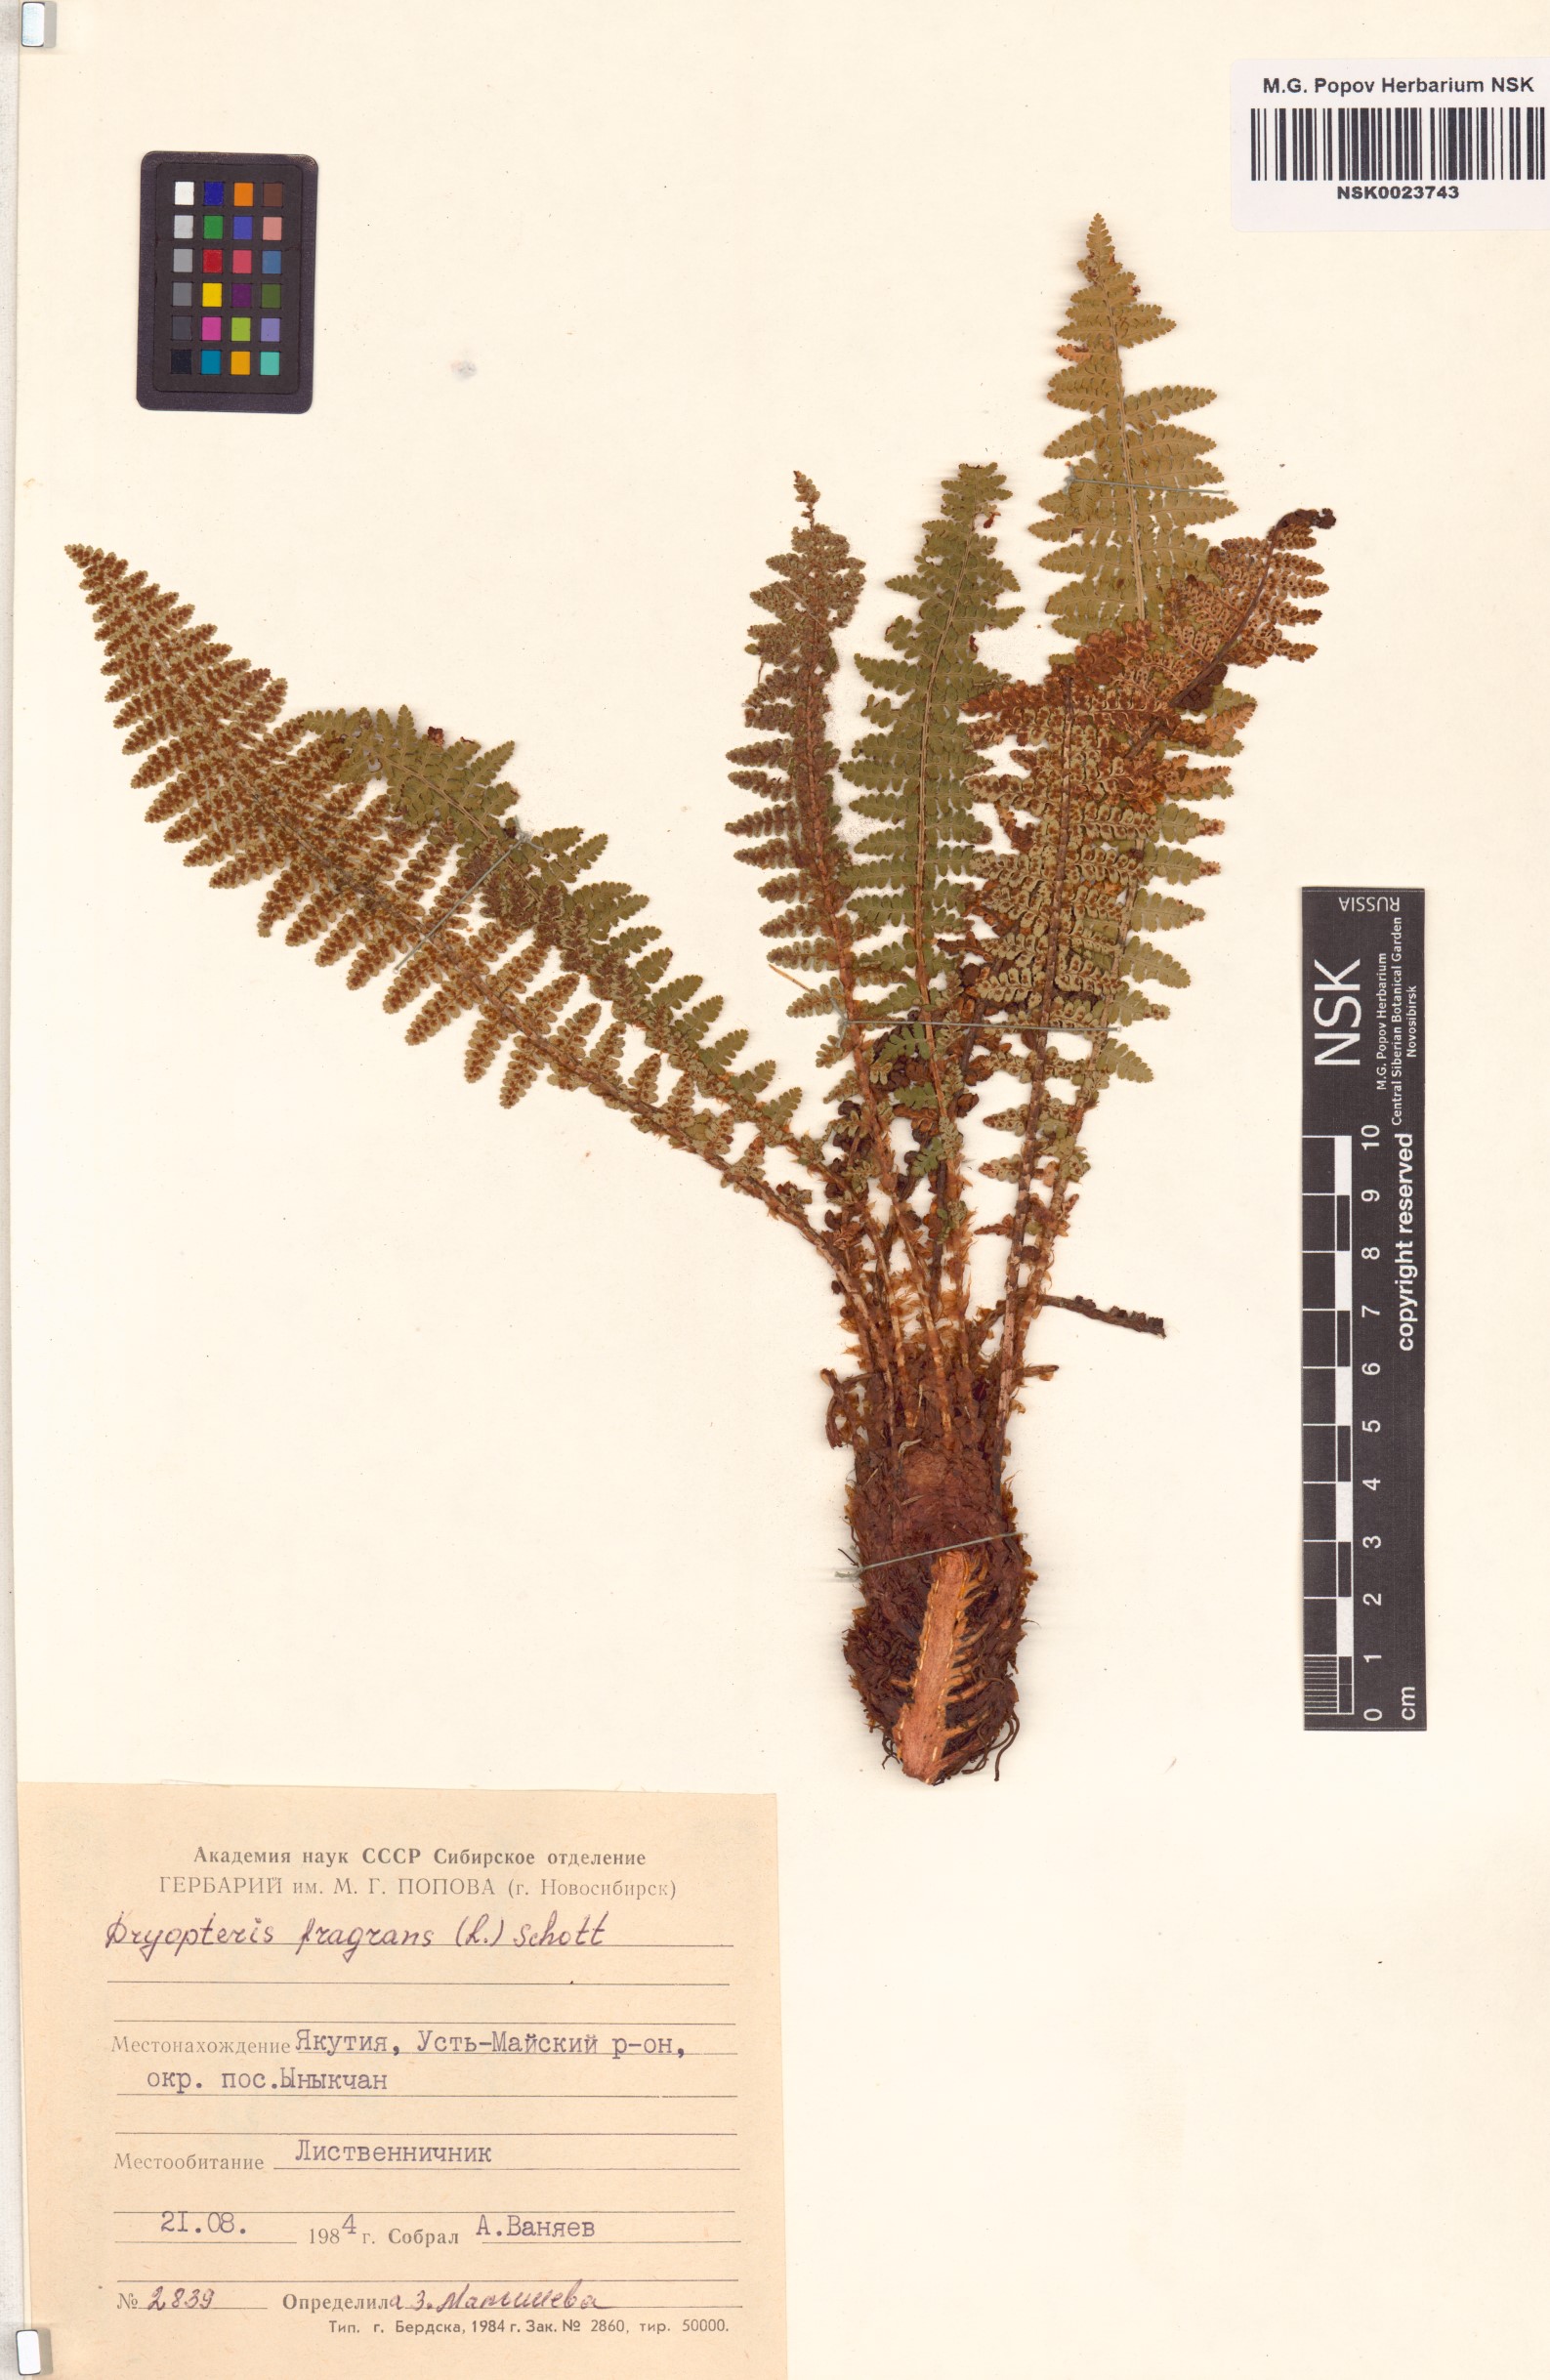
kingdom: Plantae
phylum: Tracheophyta
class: Polypodiopsida
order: Polypodiales
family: Dryopteridaceae
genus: Dryopteris
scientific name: Dryopteris fragrans
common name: Fragrant wood fern
